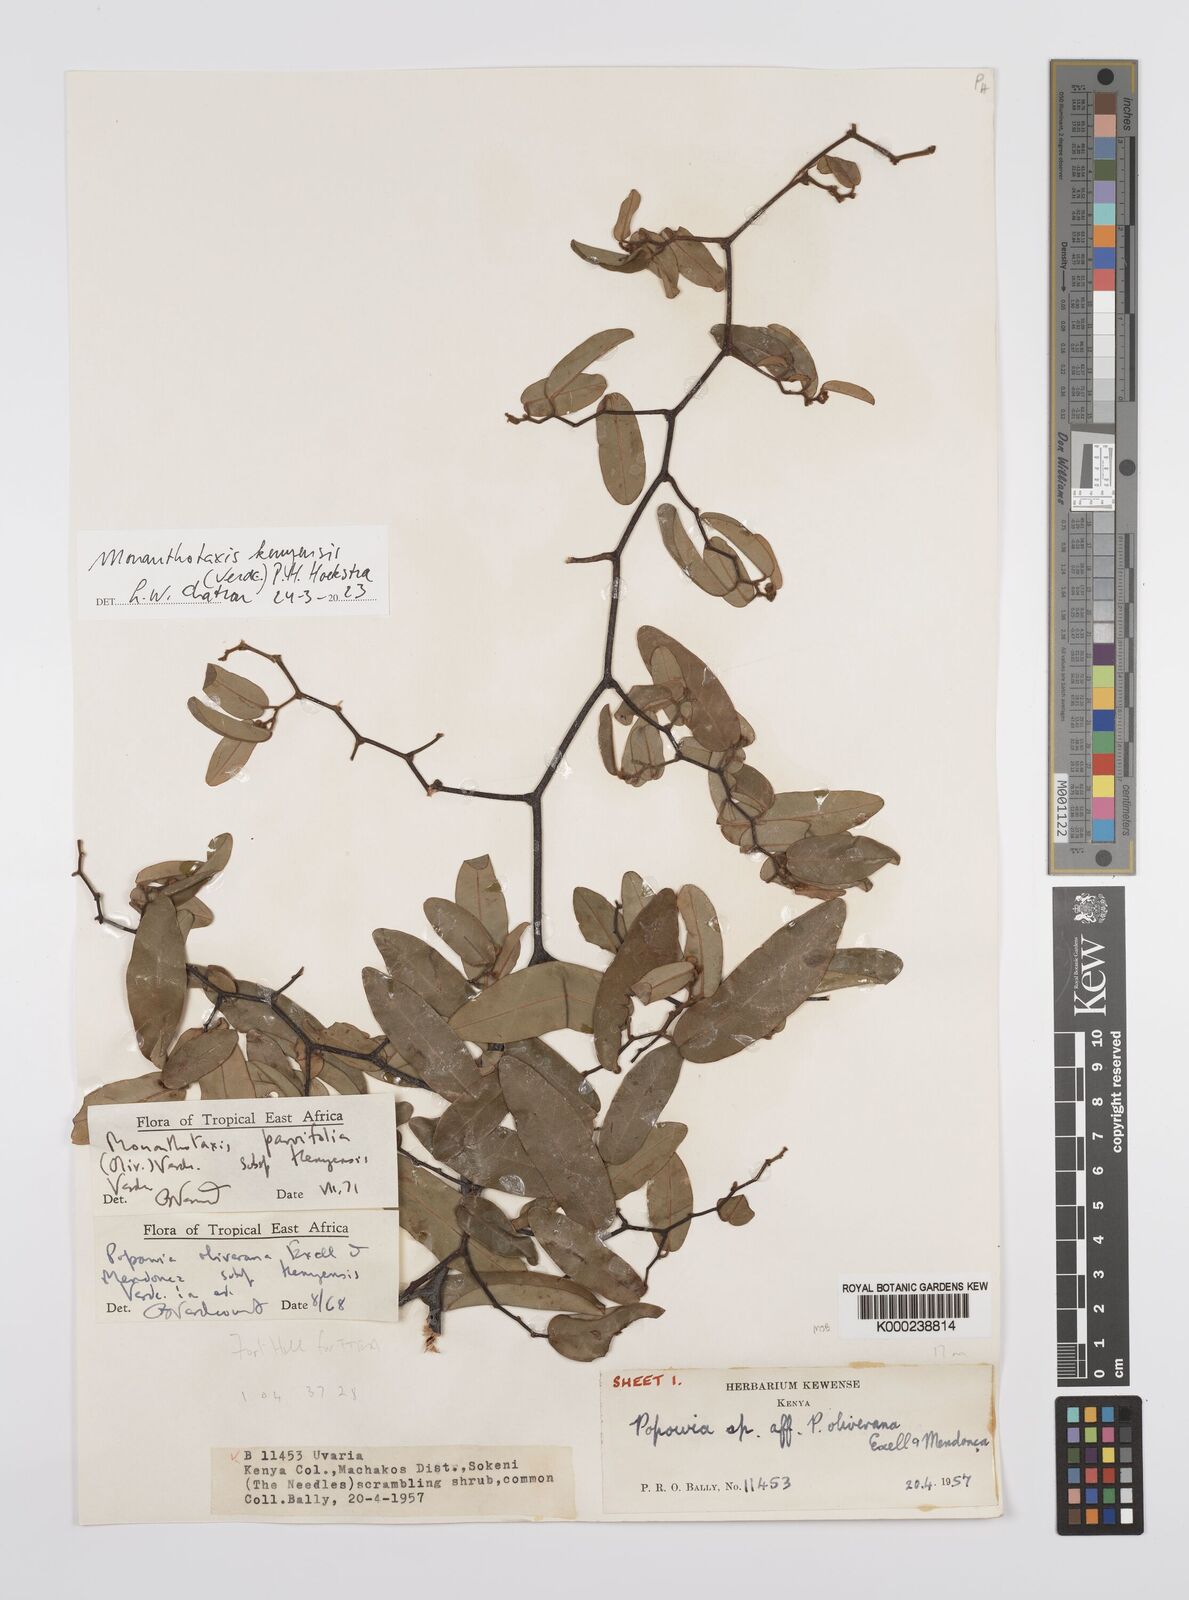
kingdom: Plantae
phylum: Tracheophyta
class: Magnoliopsida
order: Magnoliales
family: Annonaceae
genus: Monanthotaxis
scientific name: Monanthotaxis parvifolia
